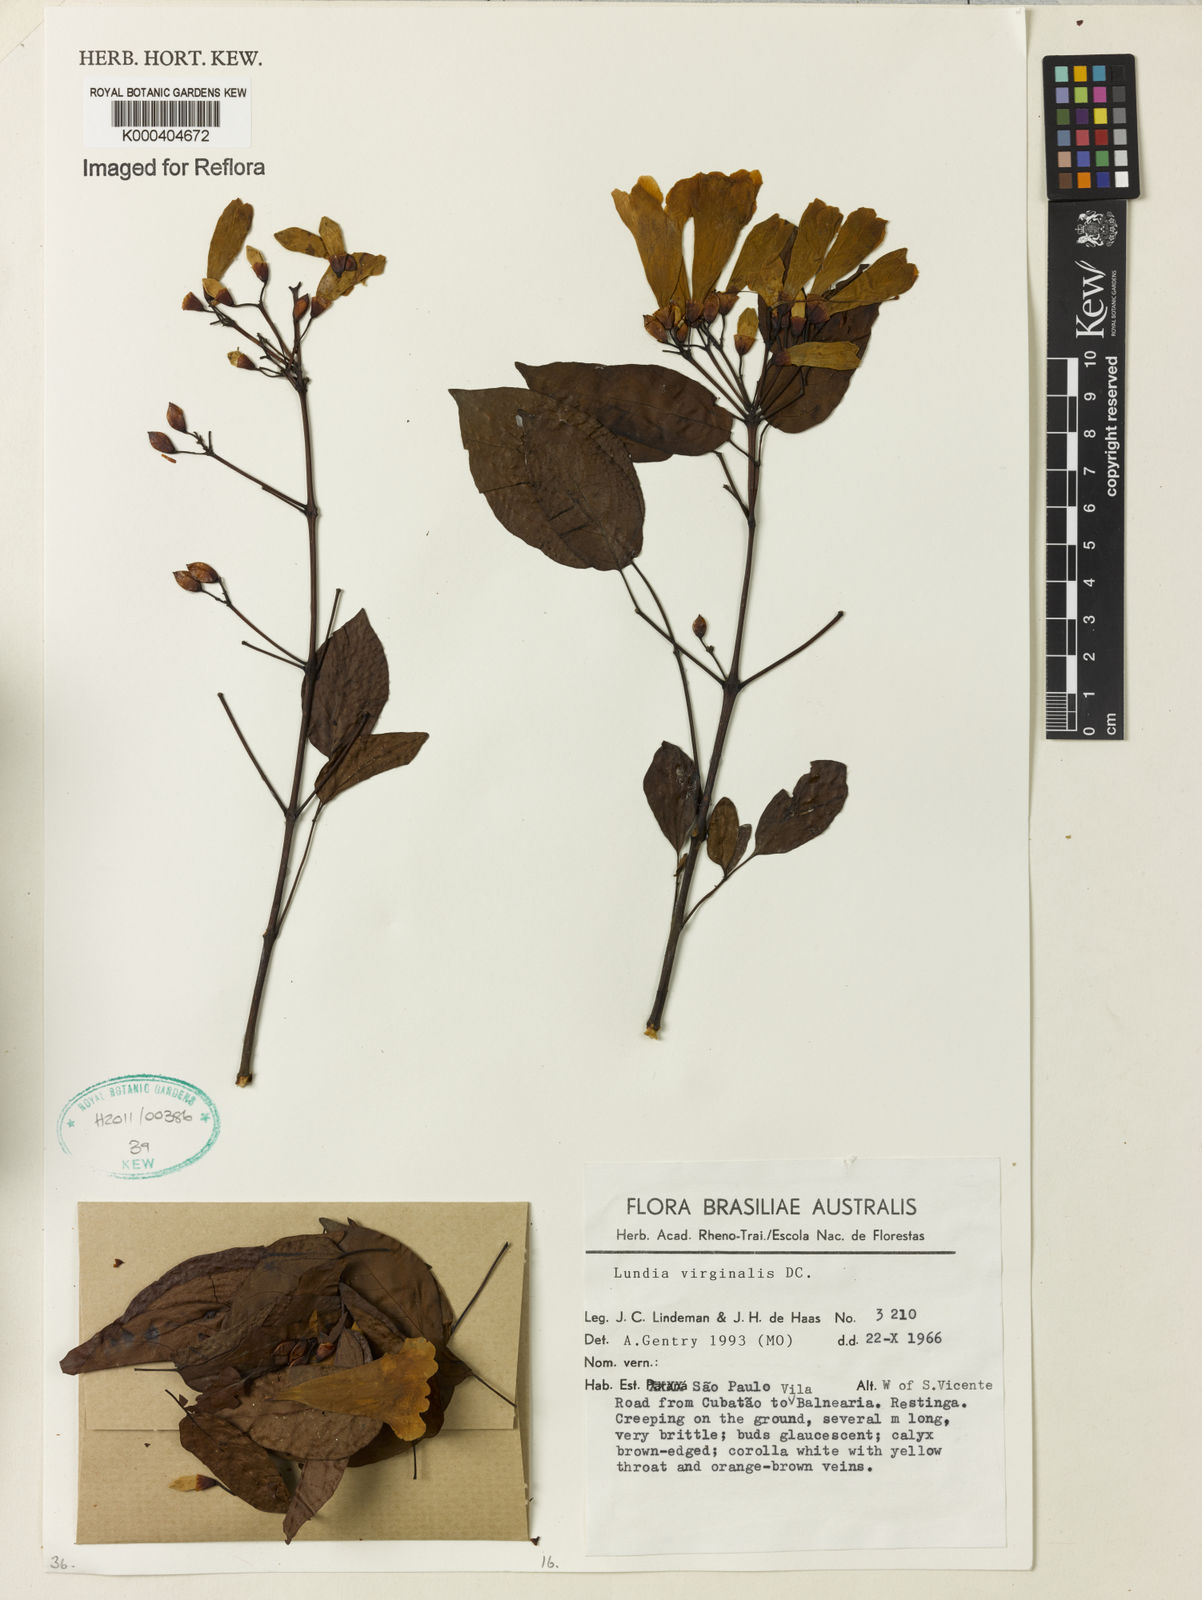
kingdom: Plantae
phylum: Tracheophyta
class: Magnoliopsida
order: Lamiales
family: Bignoniaceae
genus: Lundia
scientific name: Lundia virginalis
